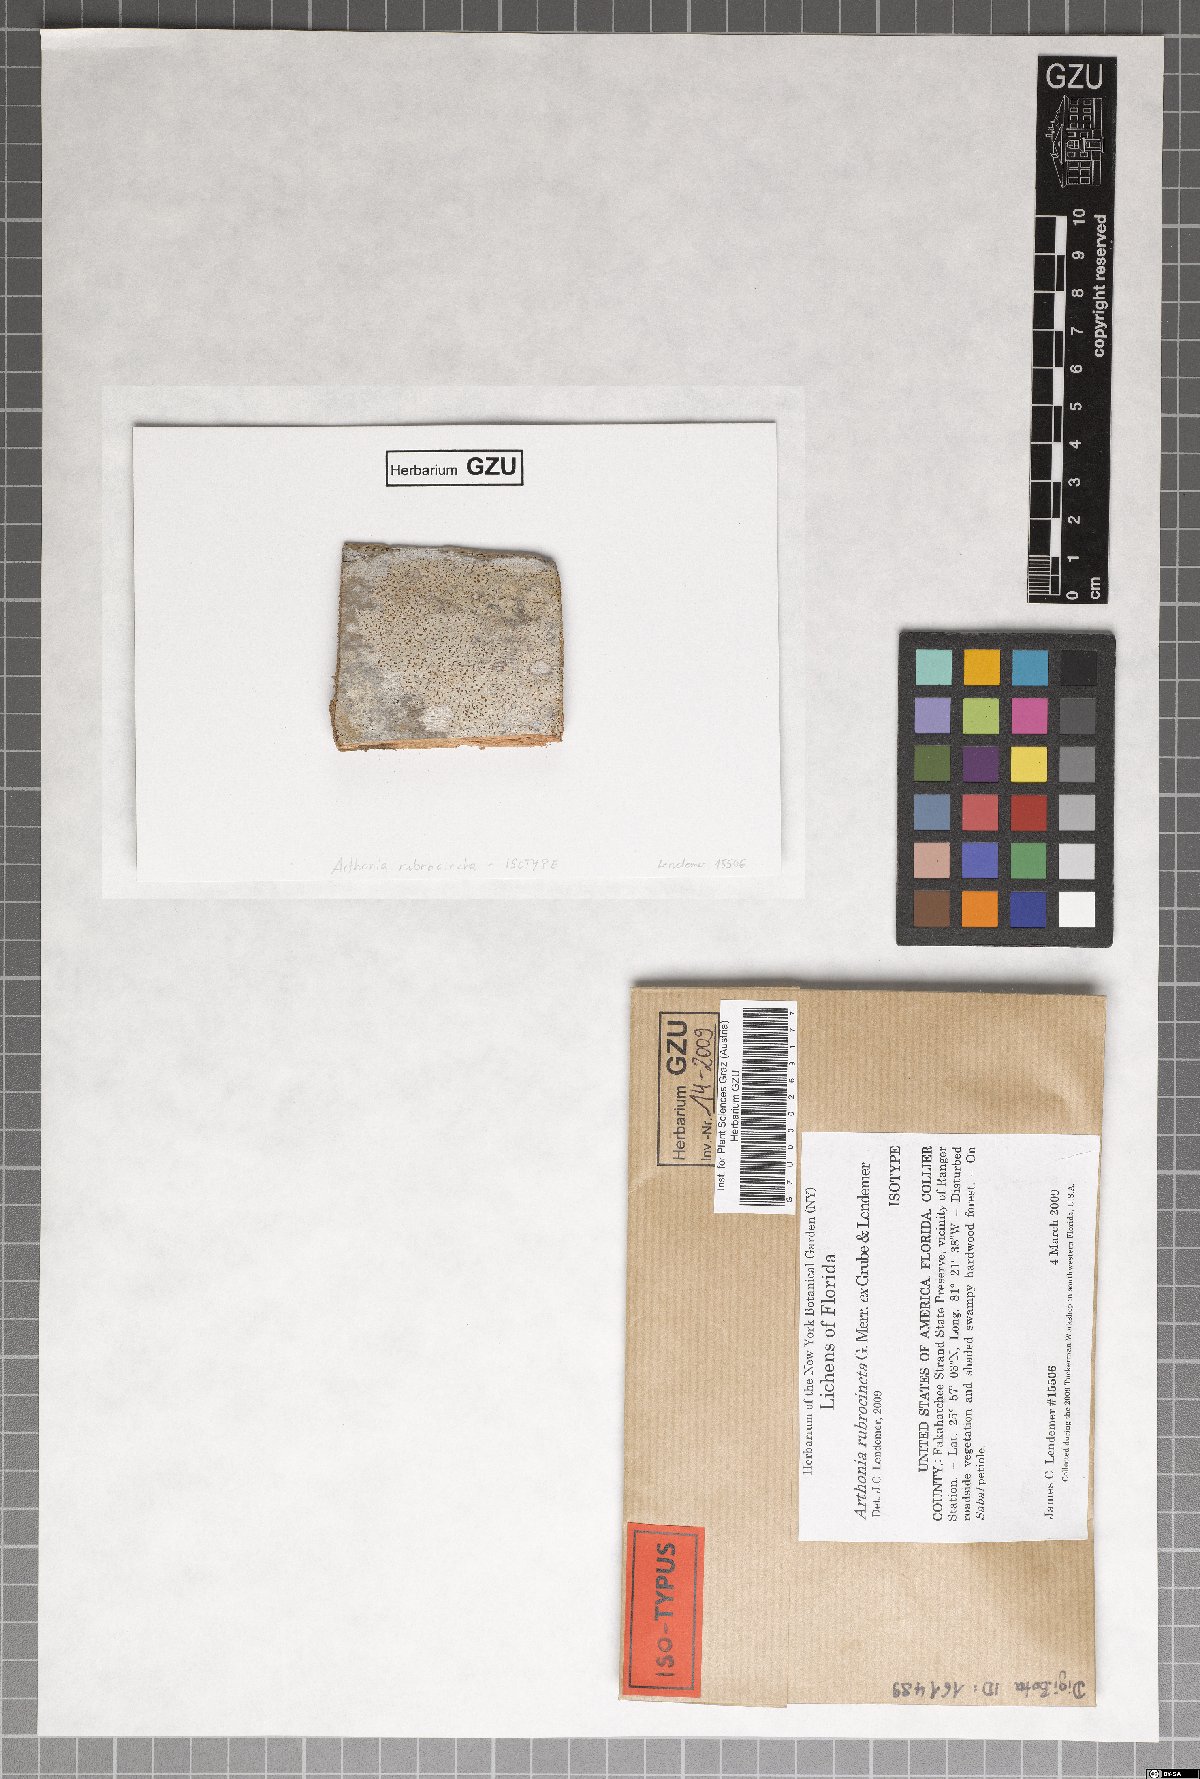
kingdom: Fungi
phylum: Ascomycota
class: Arthoniomycetes
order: Arthoniales
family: Arthoniaceae
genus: Arthonia
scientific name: Arthonia rubrocincta
